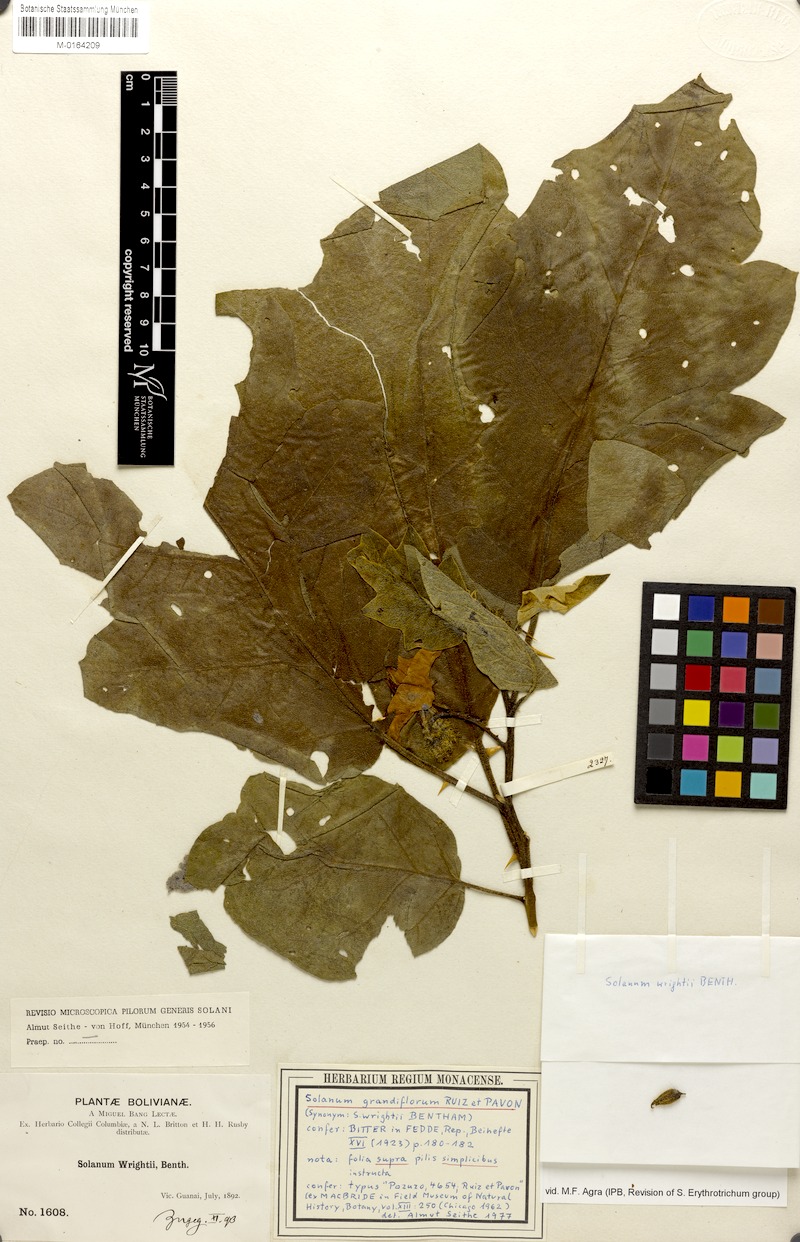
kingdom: Plantae
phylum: Tracheophyta
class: Magnoliopsida
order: Solanales
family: Solanaceae
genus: Solanum
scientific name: Solanum wrightii
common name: Brazilian potato-tree
